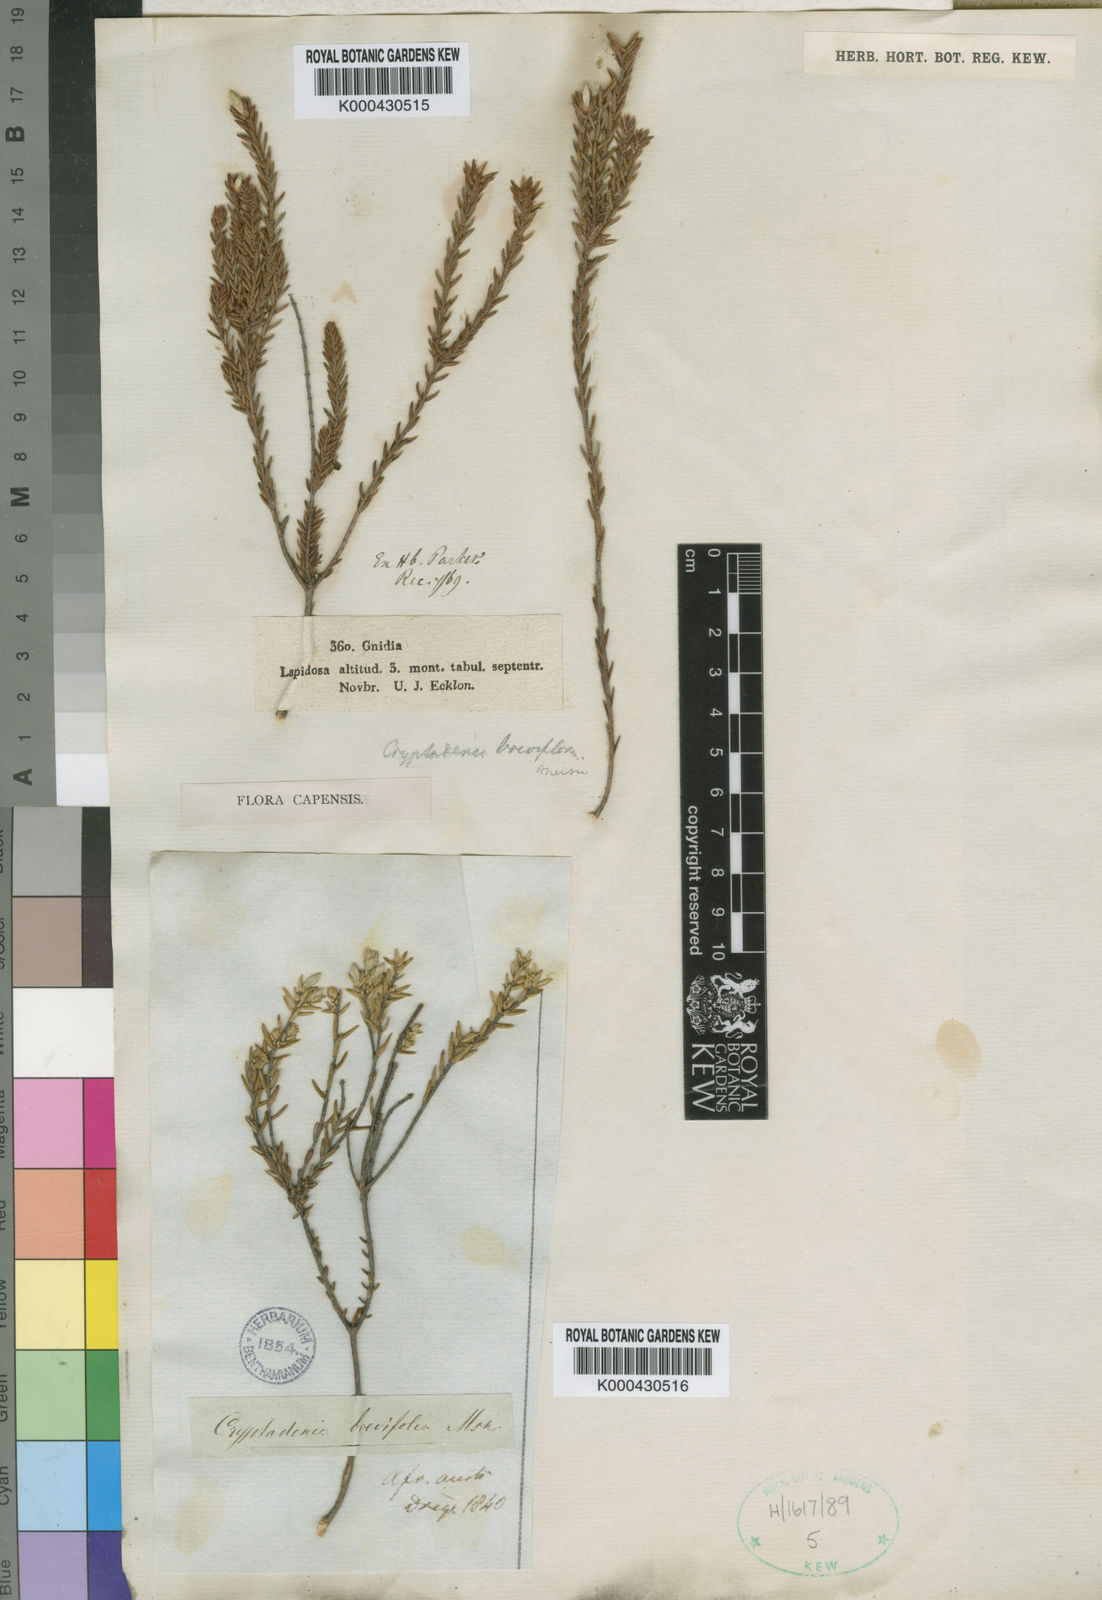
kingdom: Plantae
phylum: Tracheophyta
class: Magnoliopsida
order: Malvales
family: Thymelaeaceae
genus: Lachnaea
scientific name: Lachnaea grandiflora
